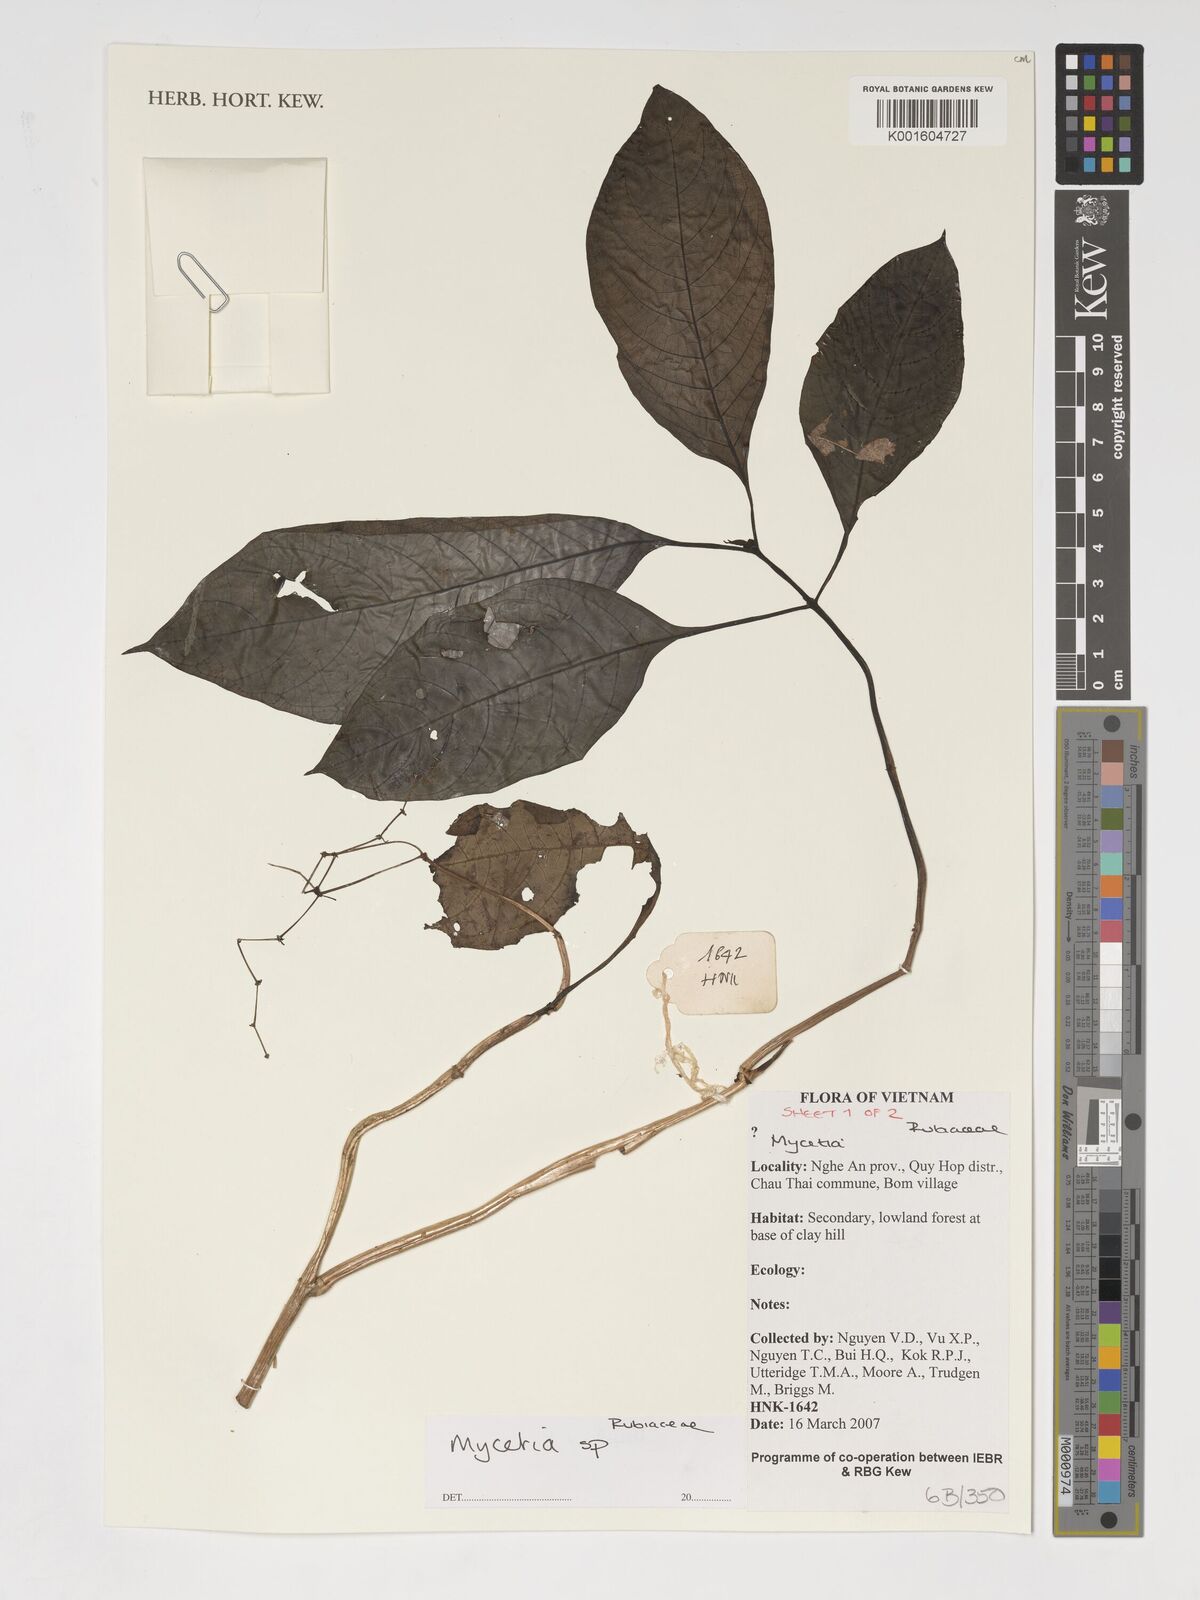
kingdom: Plantae
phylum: Tracheophyta
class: Magnoliopsida
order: Gentianales
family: Rubiaceae
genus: Mycetia
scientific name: Mycetia
